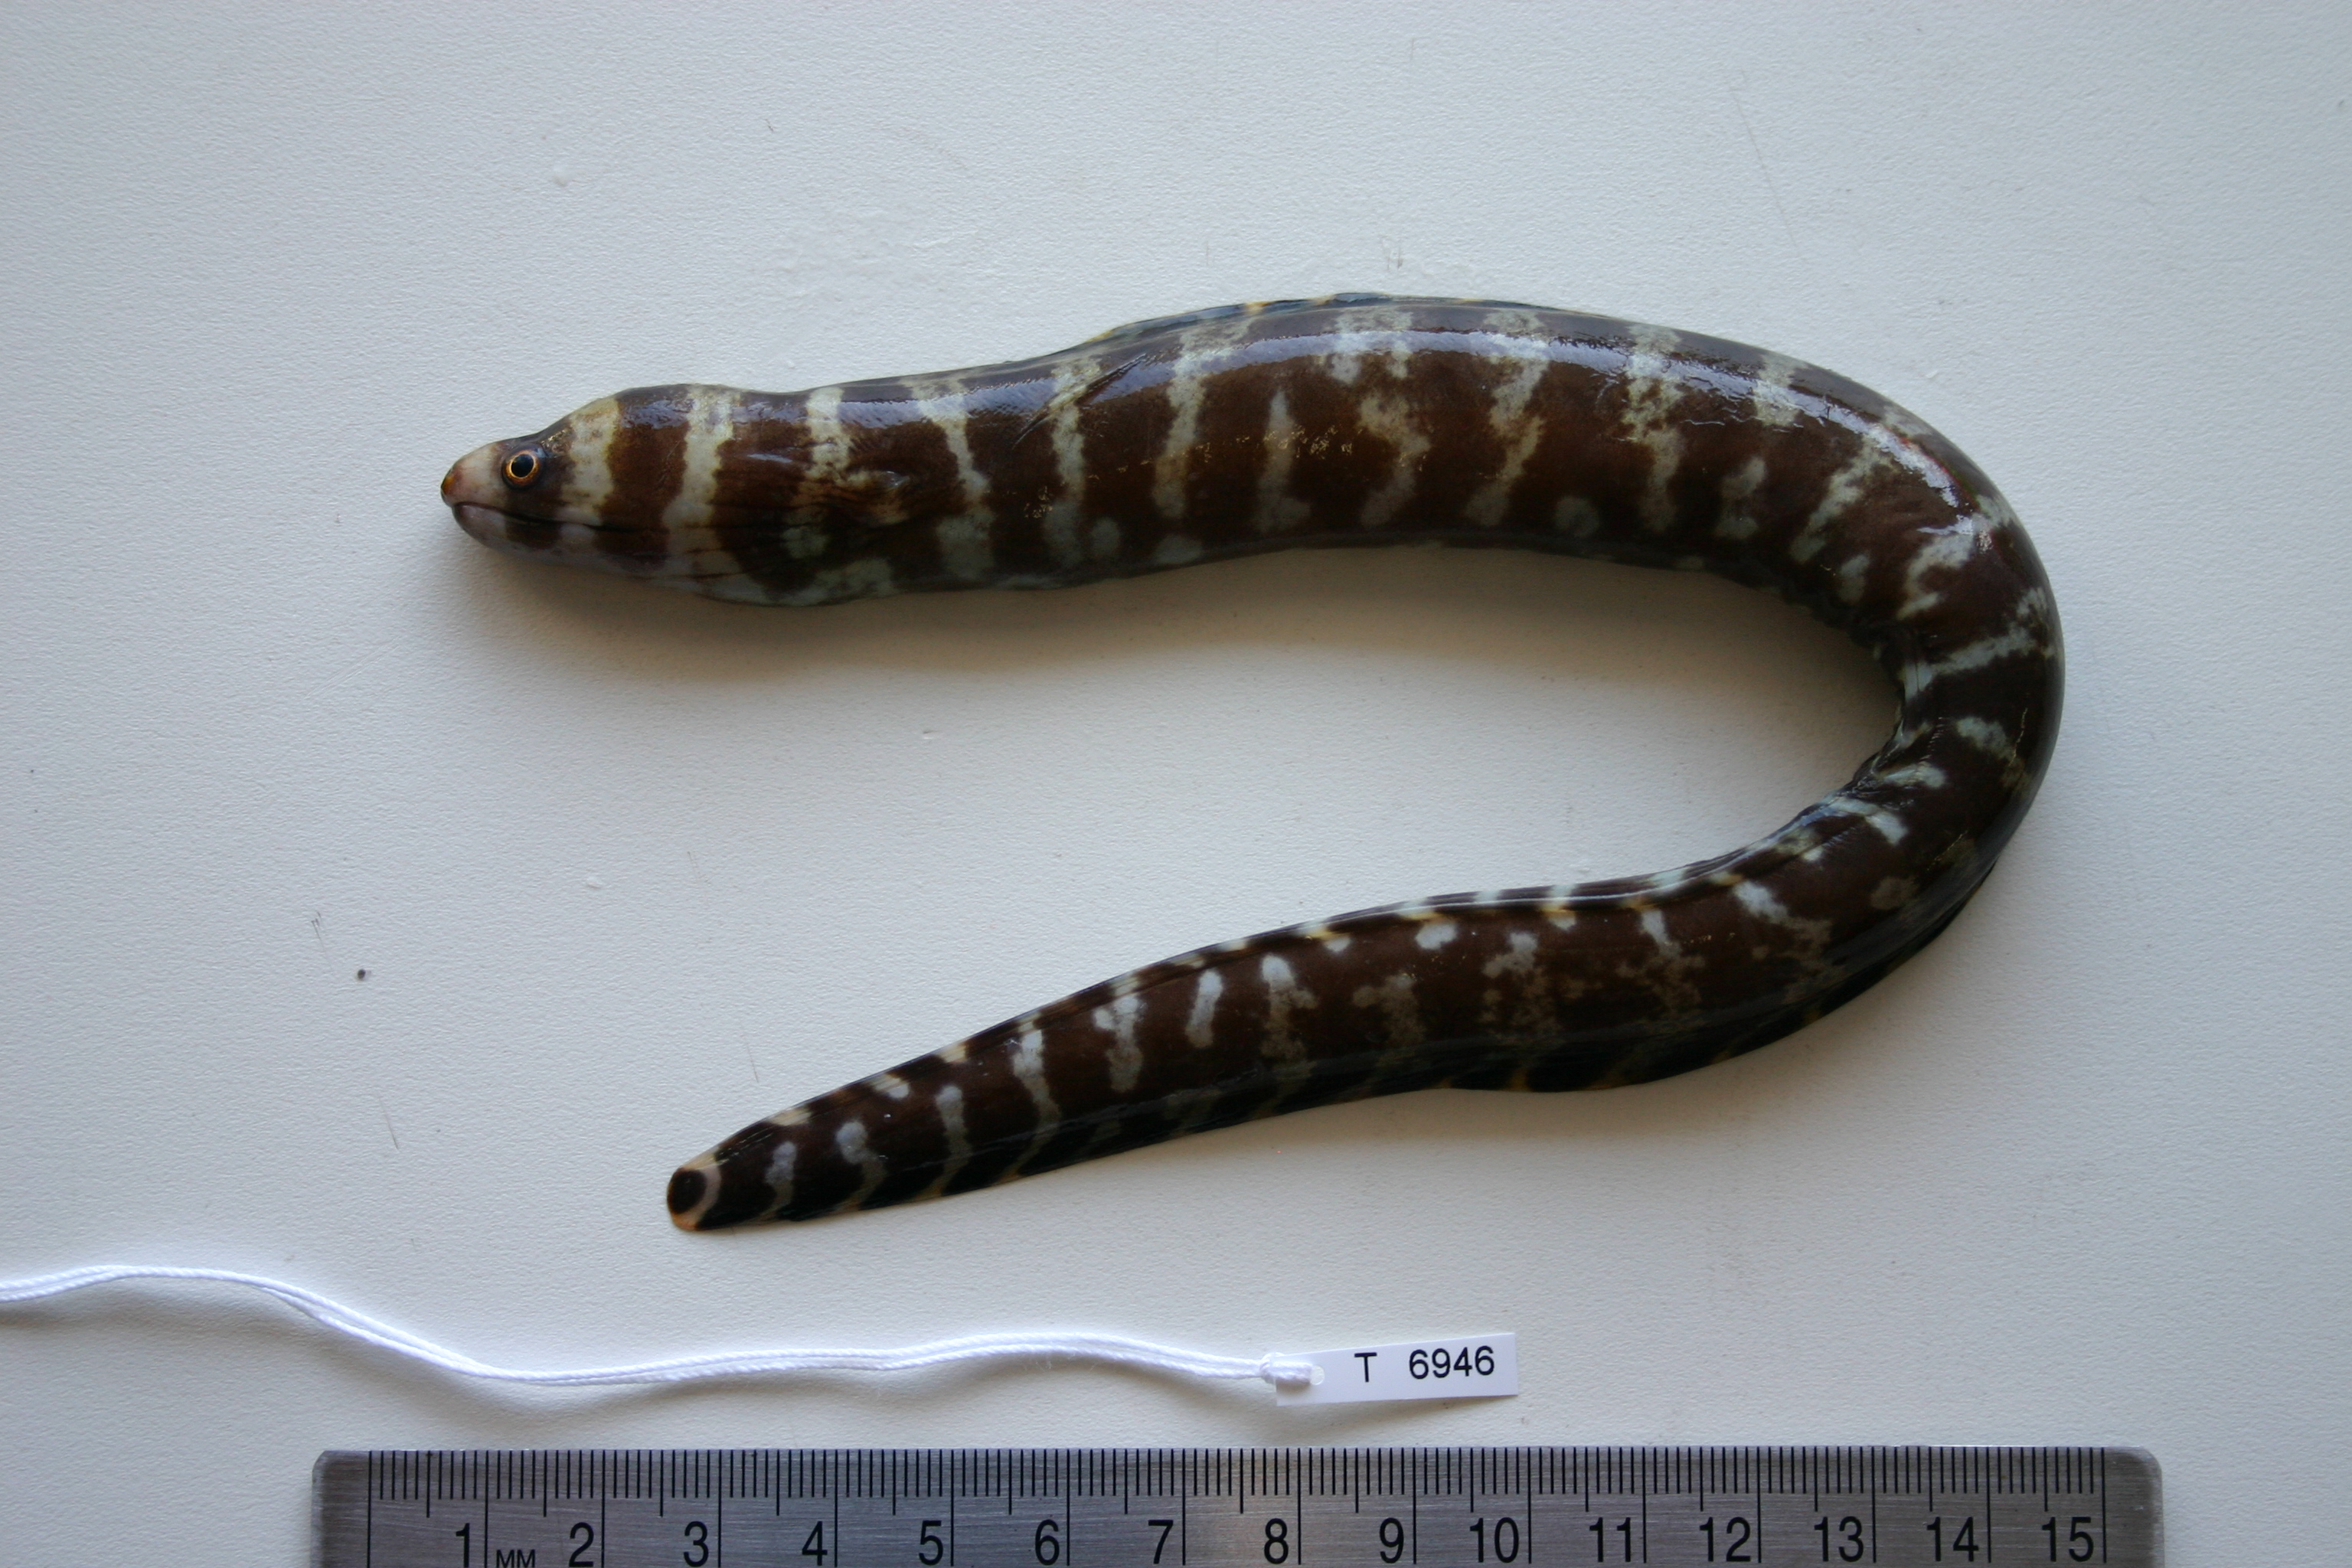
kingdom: Animalia
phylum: Chordata
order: Anguilliformes
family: Muraenidae
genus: Echidna
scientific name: Echidna polyzona
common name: Barred moray
